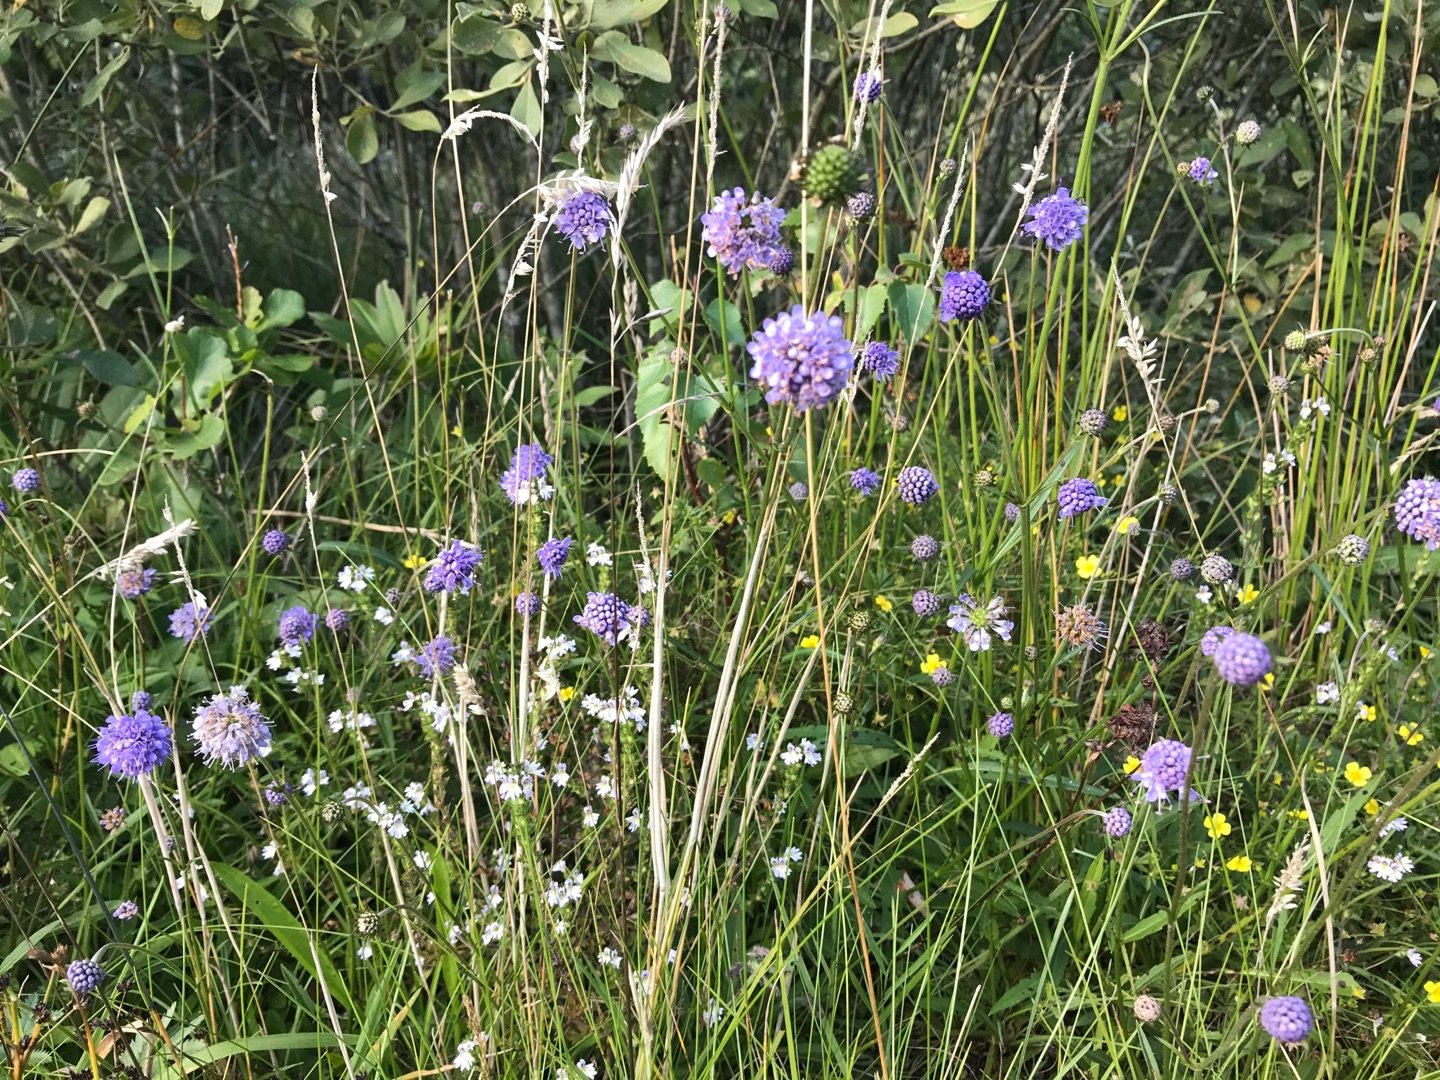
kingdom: Plantae
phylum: Tracheophyta
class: Magnoliopsida
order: Dipsacales
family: Caprifoliaceae
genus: Succisa
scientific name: Succisa pratensis
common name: Djævelsbid
